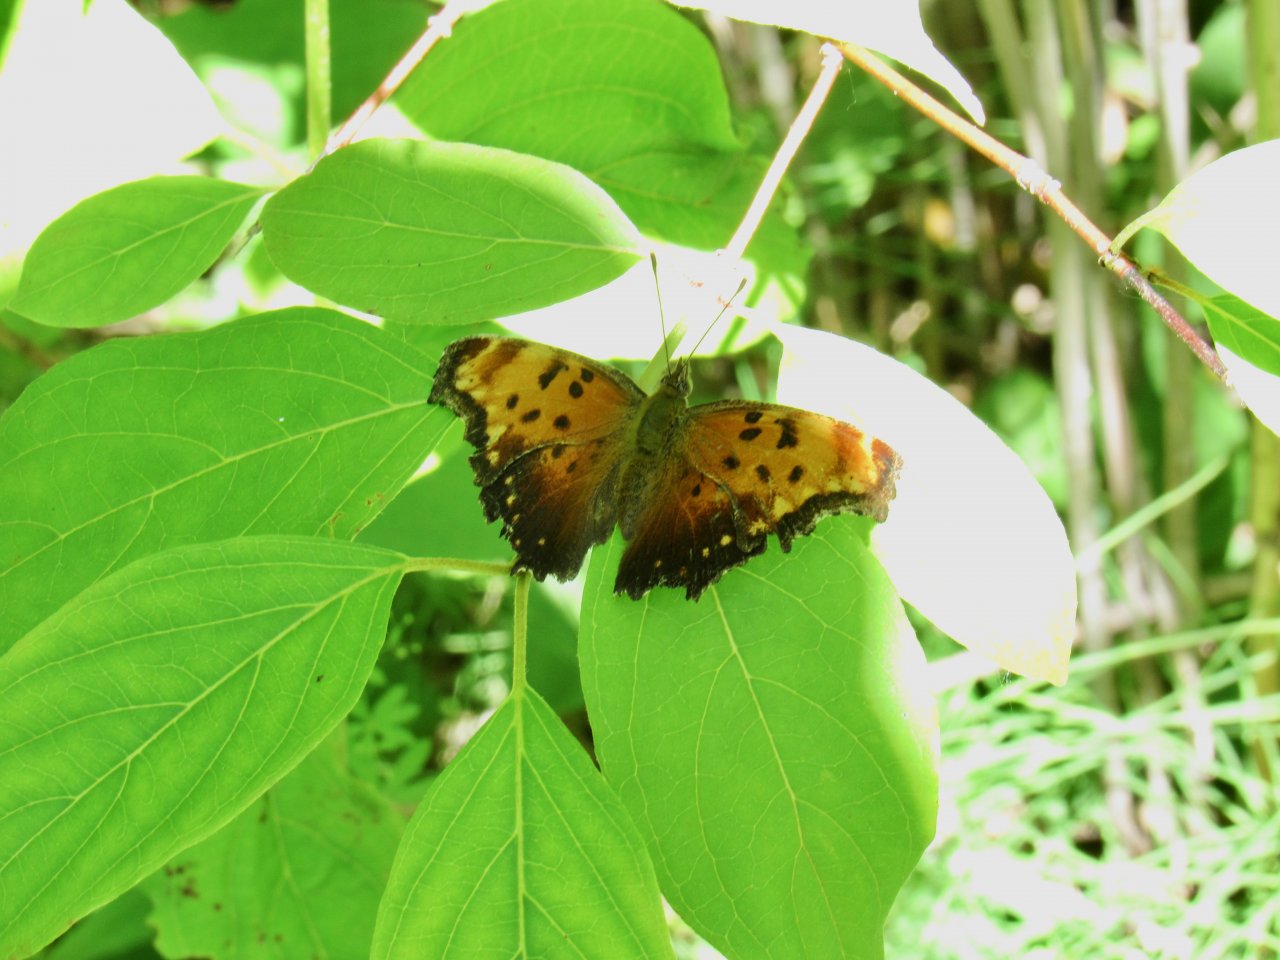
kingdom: Animalia
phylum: Arthropoda
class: Insecta
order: Lepidoptera
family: Nymphalidae
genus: Polygonia
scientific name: Polygonia progne
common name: Gray Comma
